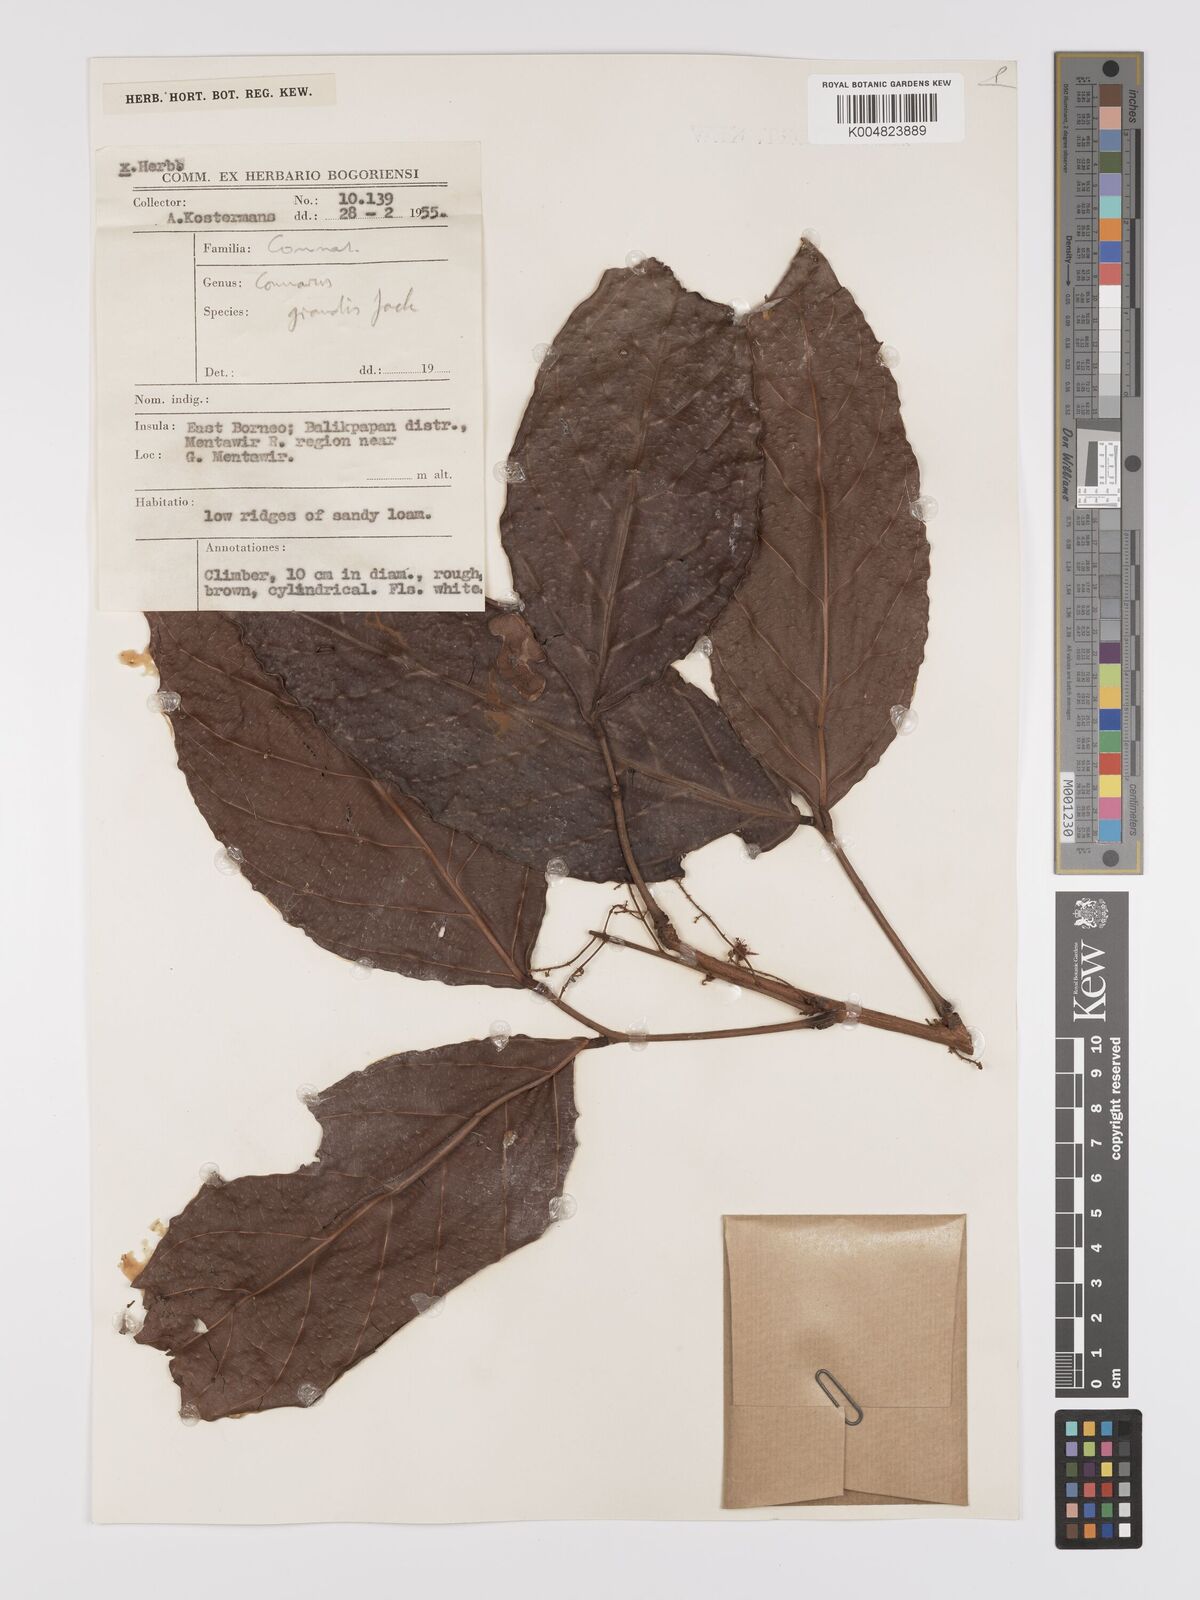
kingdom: Plantae
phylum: Tracheophyta
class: Magnoliopsida
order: Oxalidales
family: Connaraceae
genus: Connarus
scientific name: Connarus grandis
